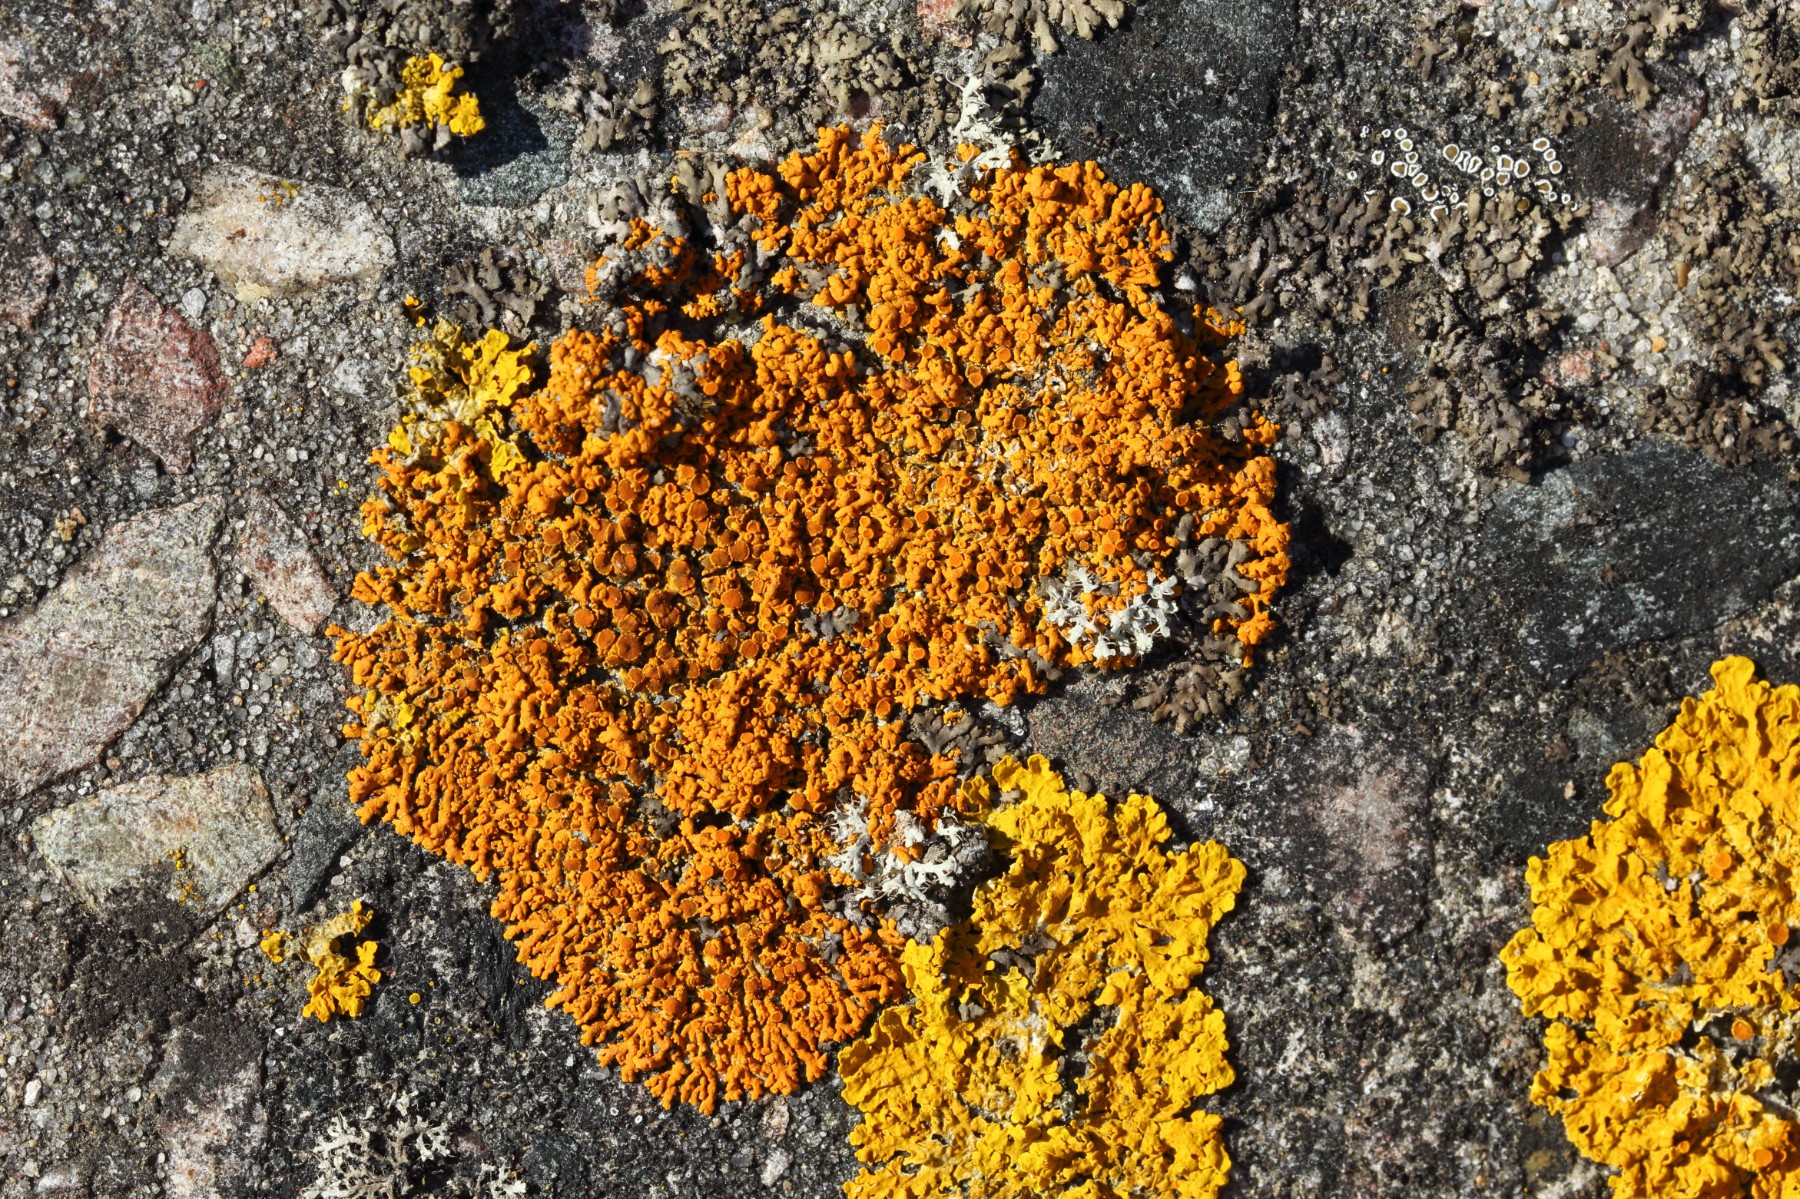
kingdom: Fungi
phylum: Ascomycota
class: Lecanoromycetes
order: Teloschistales
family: Teloschistaceae
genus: Xanthoria
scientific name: Xanthoria elegans
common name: fjeld-væggelav
